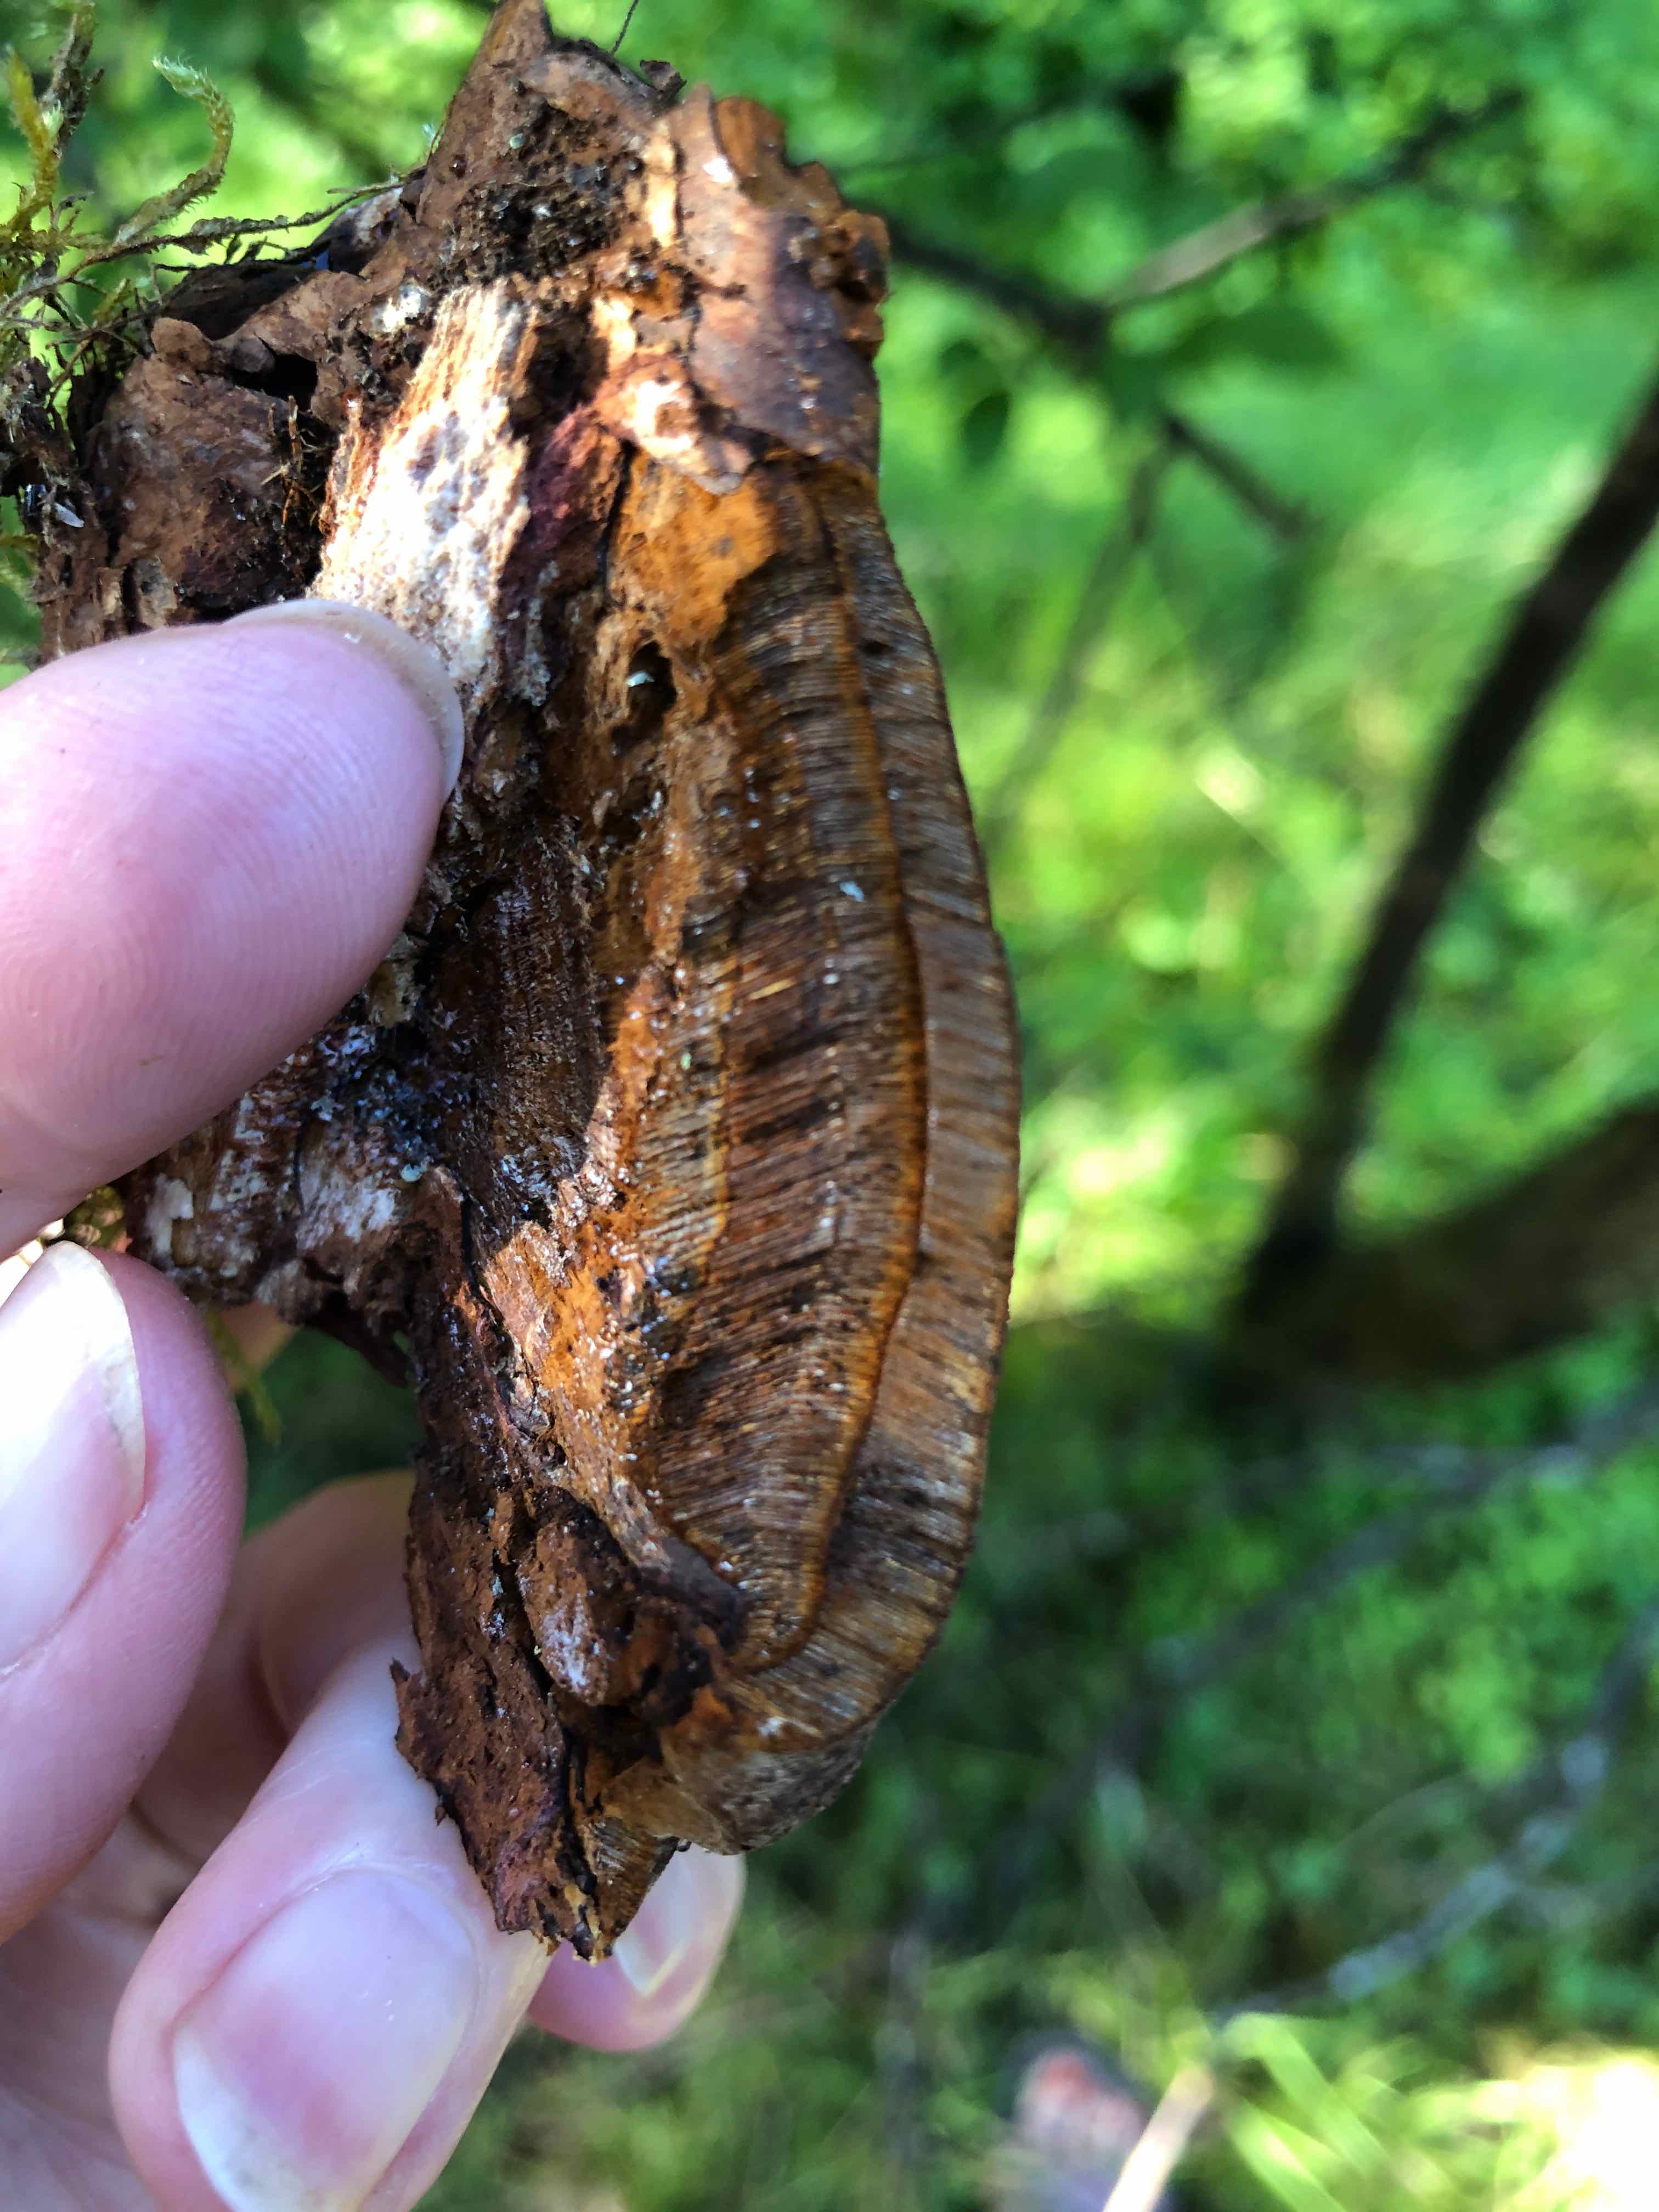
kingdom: Fungi
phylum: Basidiomycota
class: Agaricomycetes
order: Hymenochaetales
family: Hymenochaetaceae
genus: Phellinus
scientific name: Phellinus pomaceus
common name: blomme-ildporesvamp
